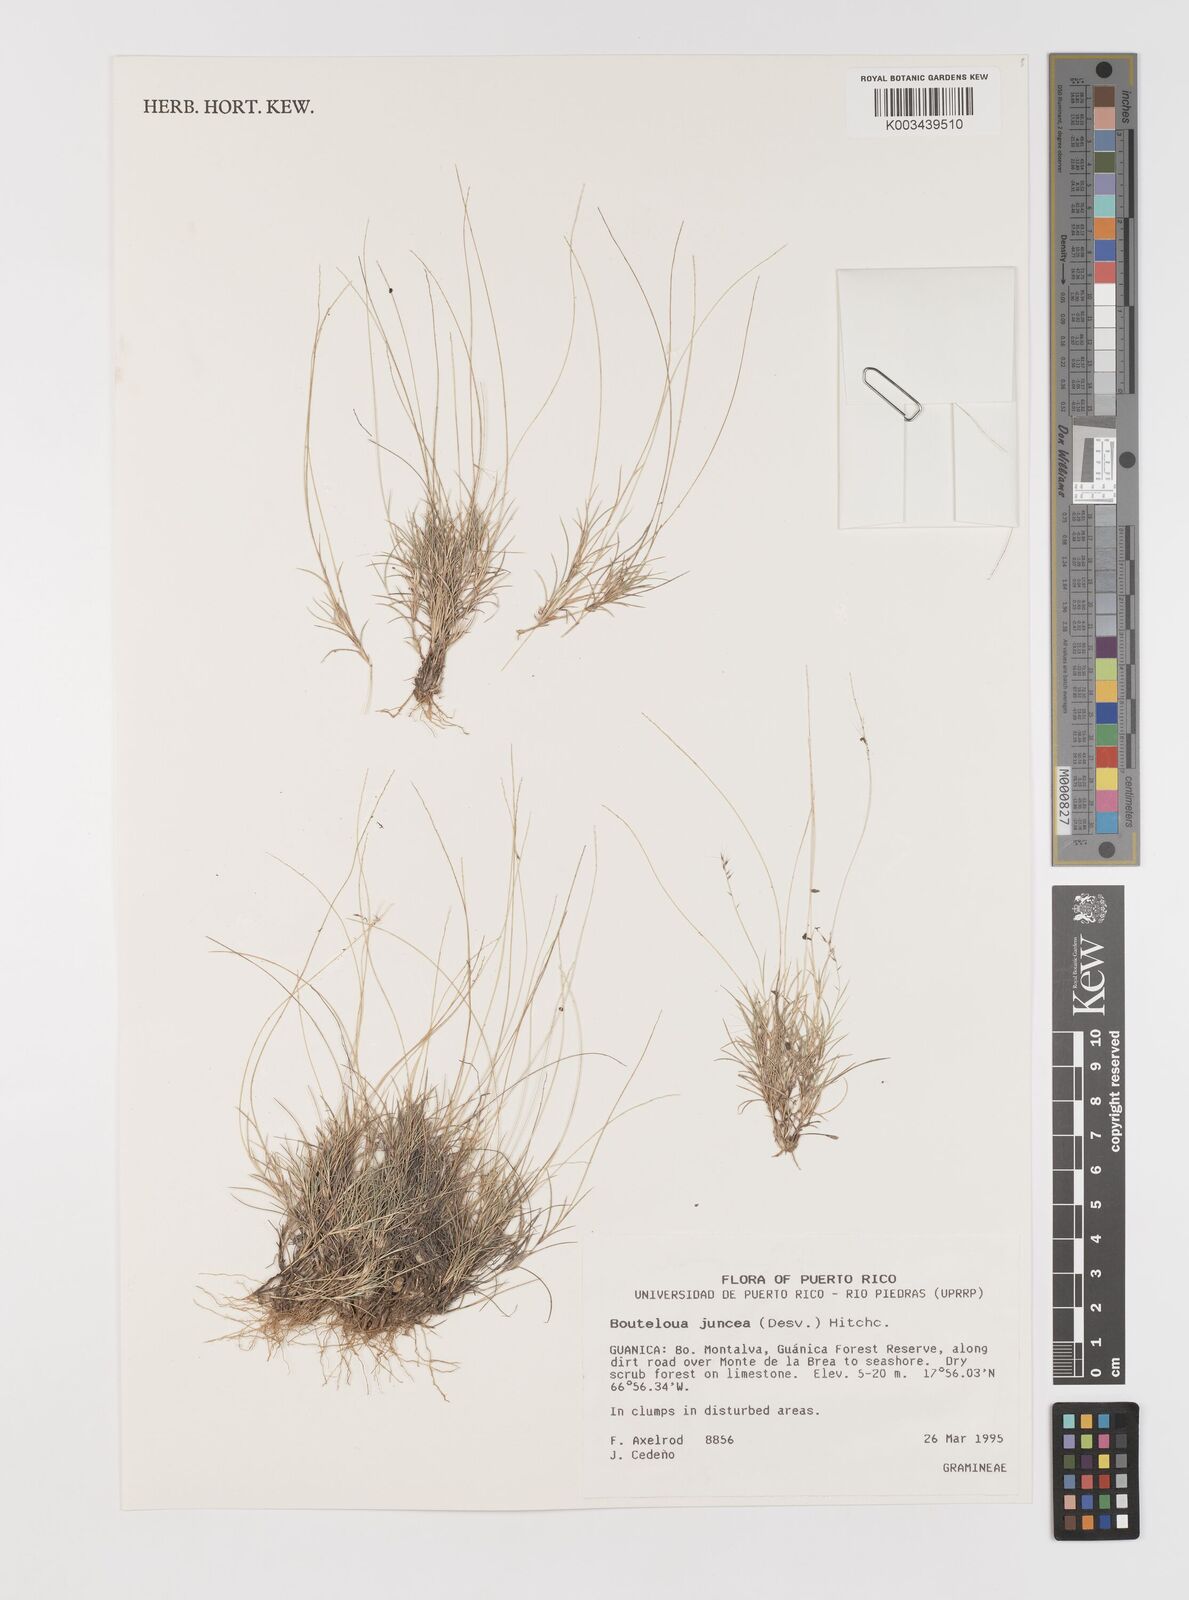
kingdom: Plantae
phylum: Tracheophyta
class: Liliopsida
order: Poales
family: Poaceae
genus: Bouteloua
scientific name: Bouteloua juncea
